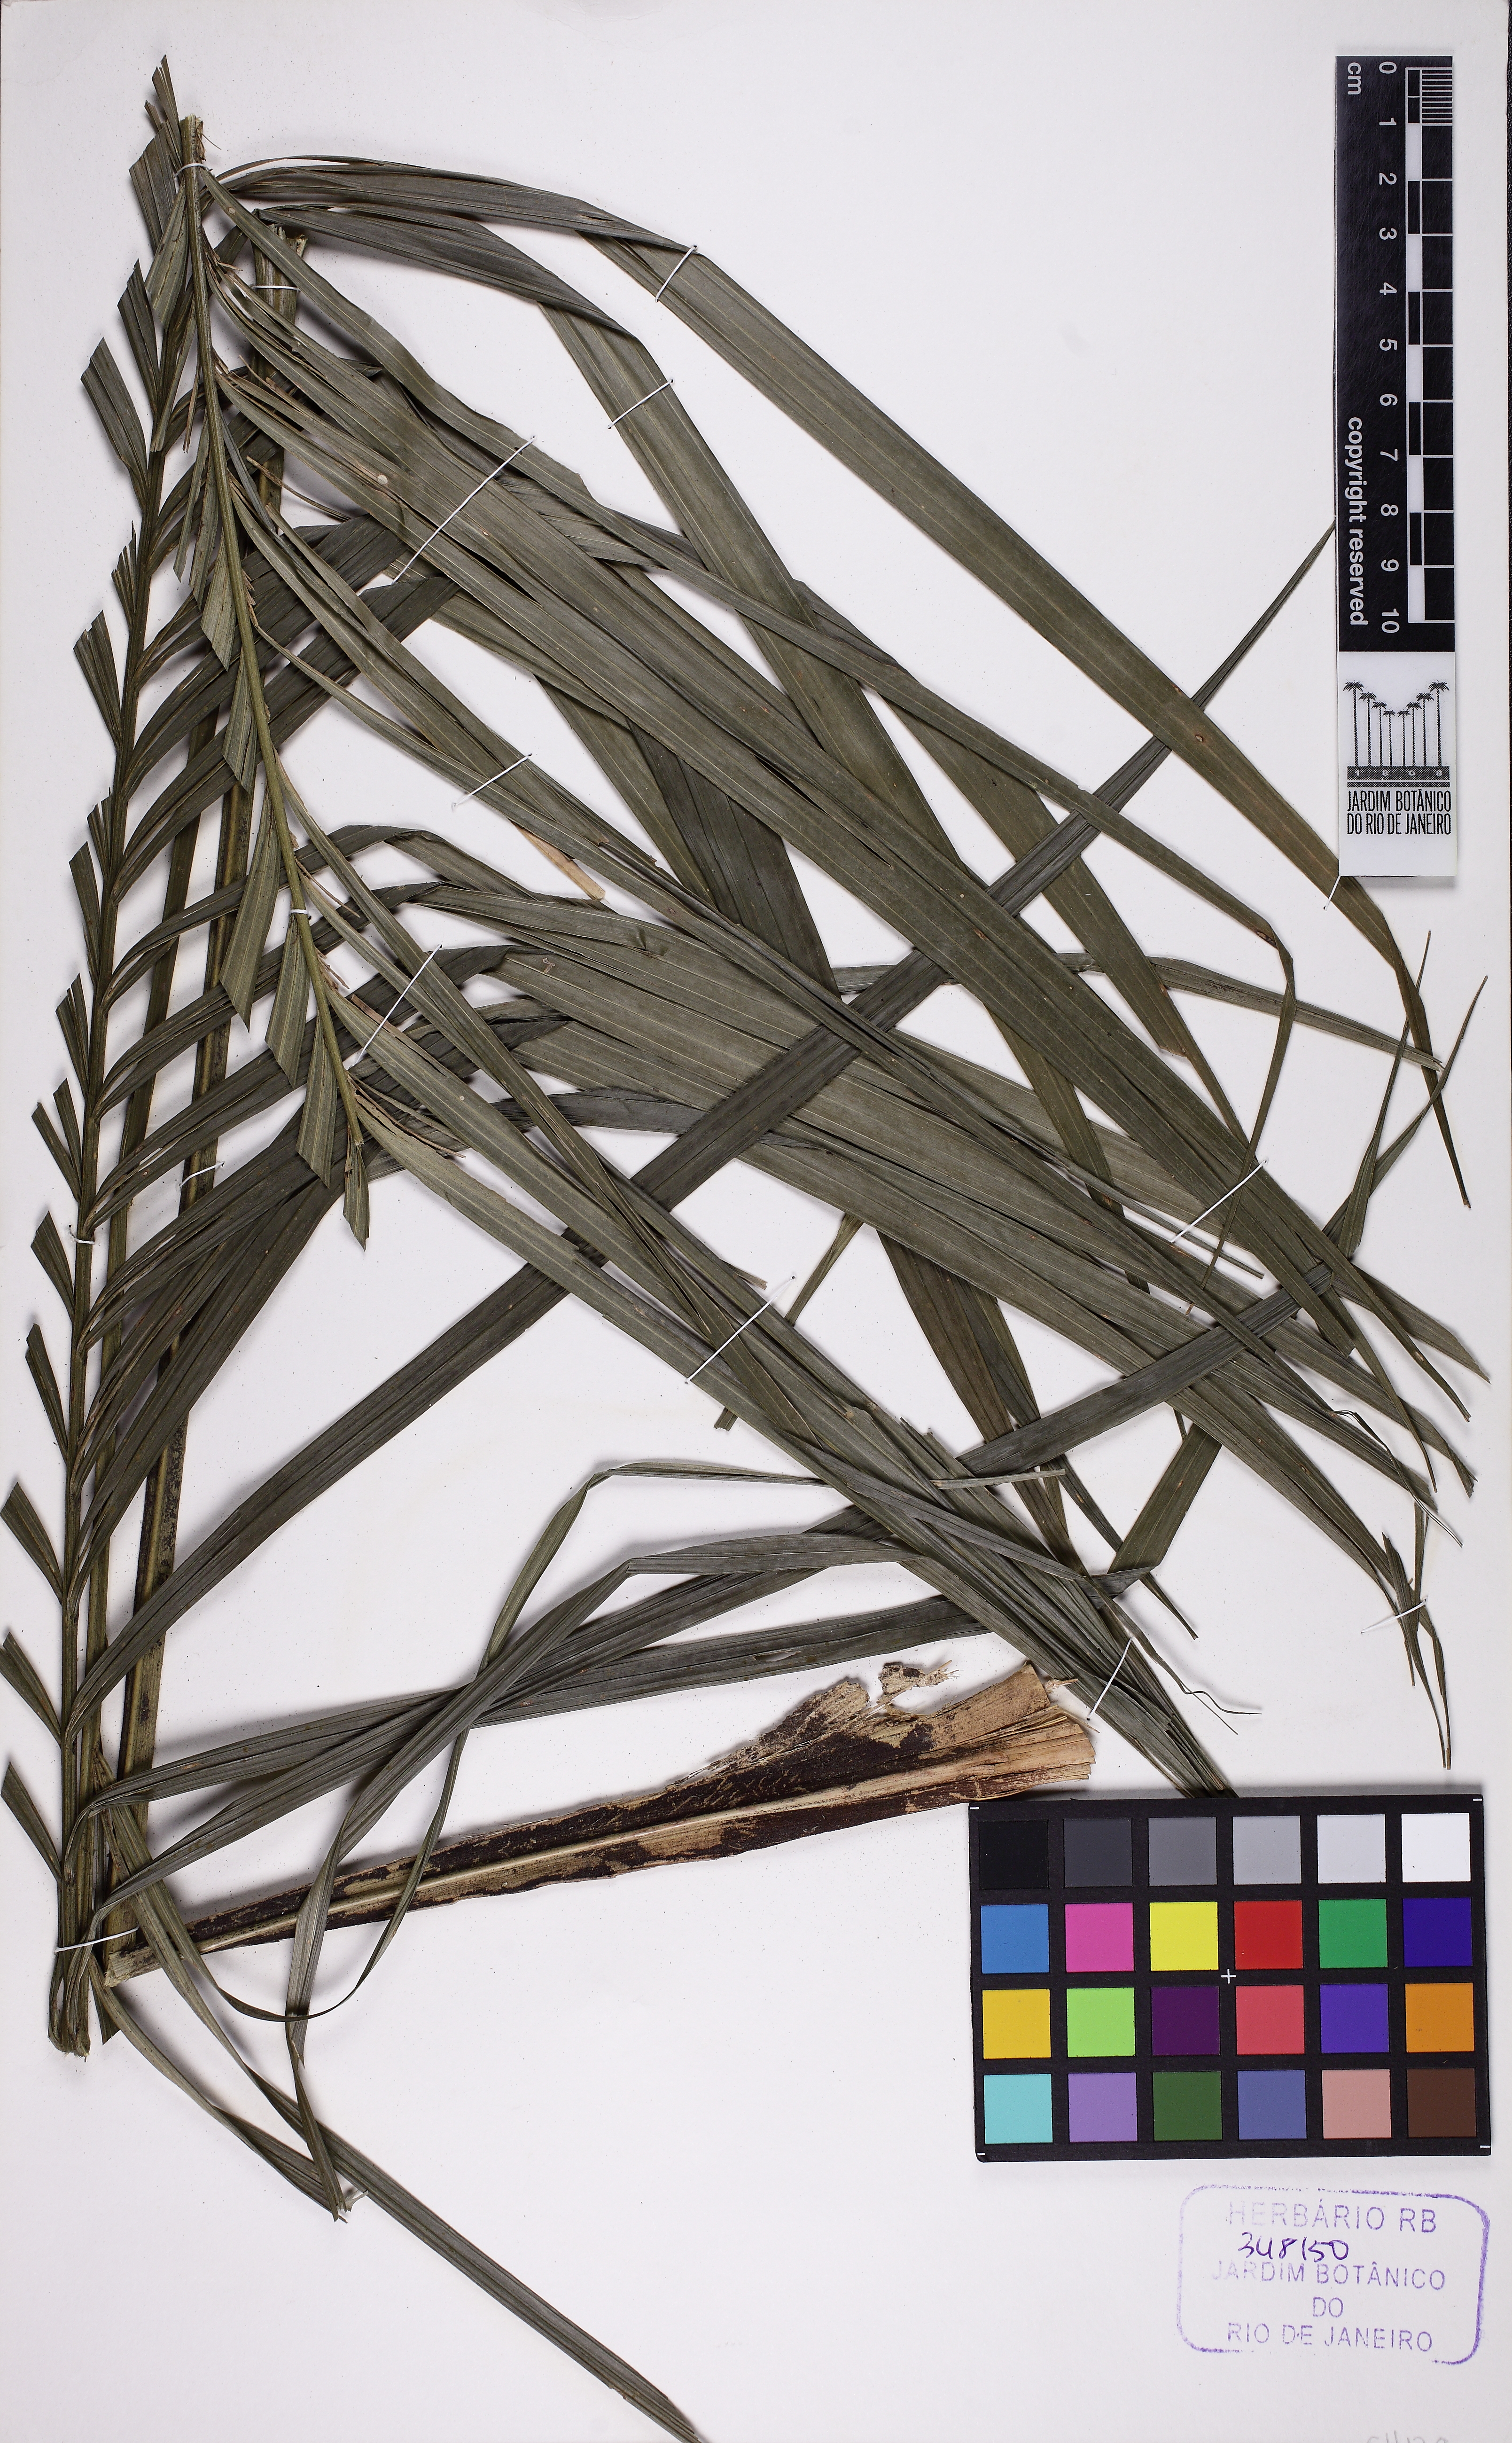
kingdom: Plantae
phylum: Tracheophyta
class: Liliopsida
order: Arecales
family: Arecaceae
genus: Geonoma
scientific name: Geonoma schottiana
